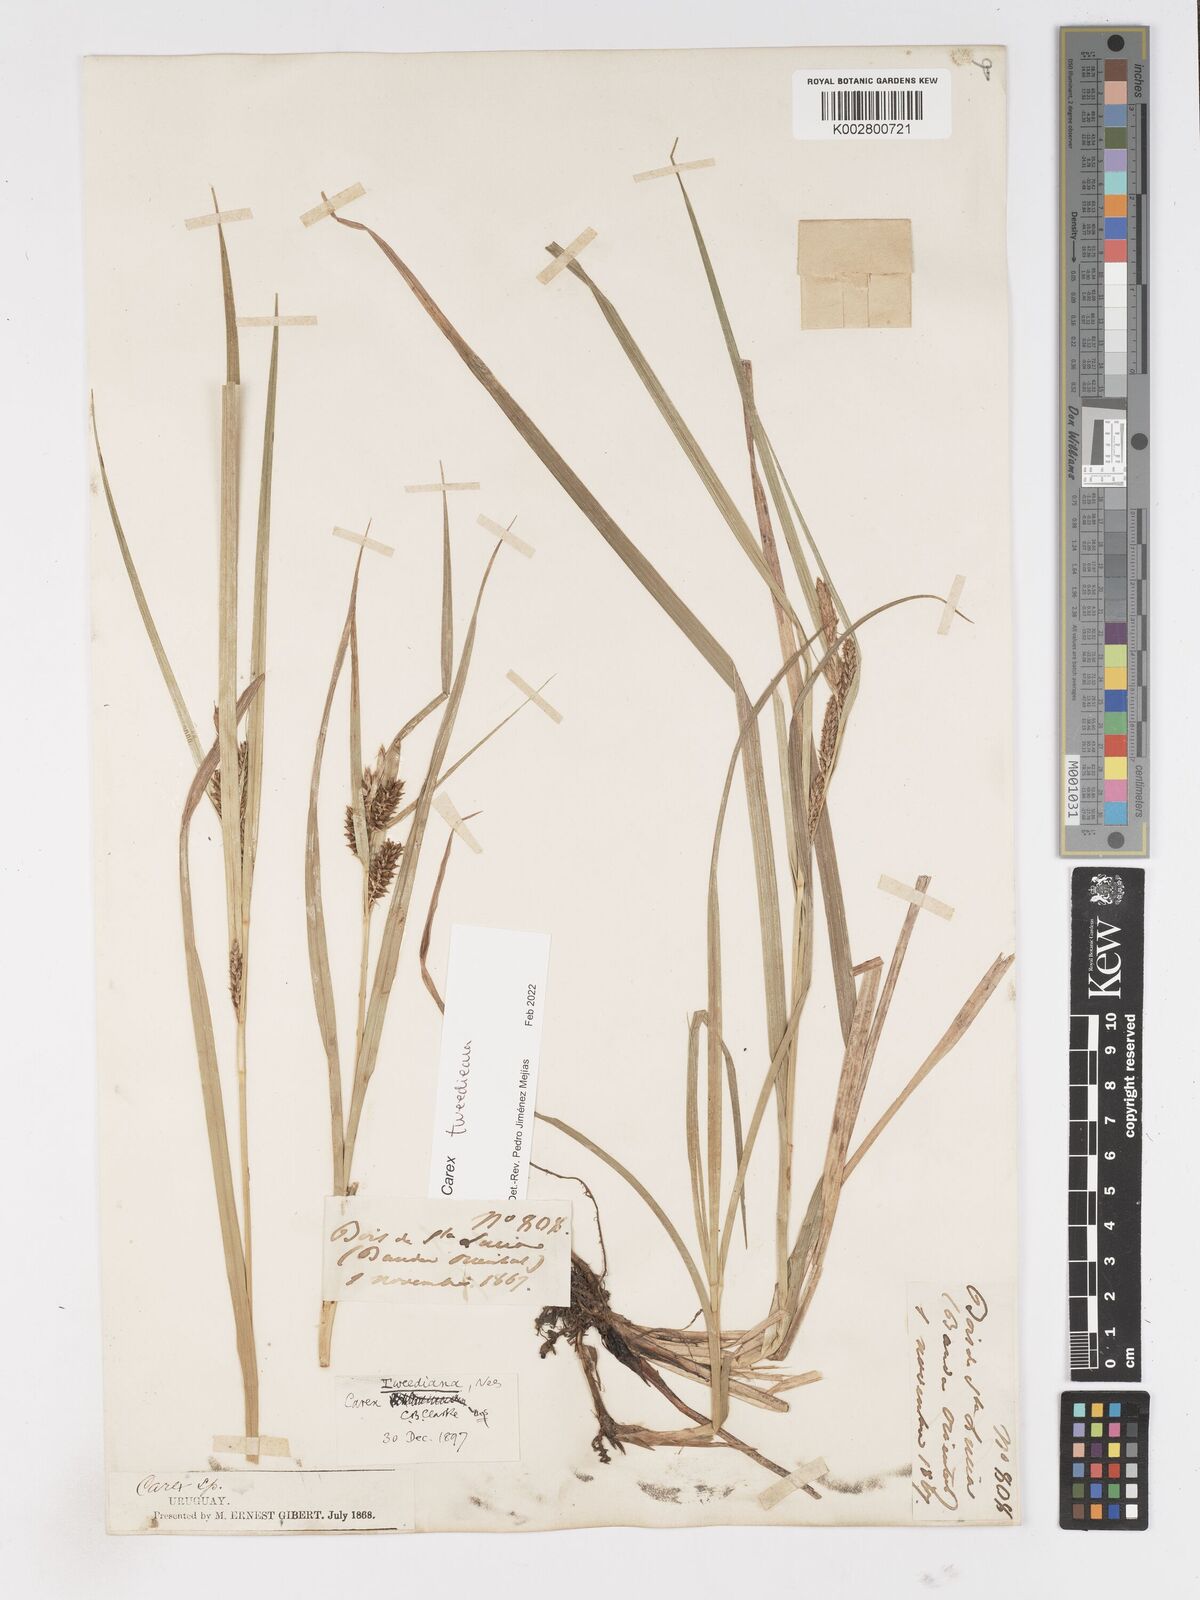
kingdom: Plantae
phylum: Tracheophyta
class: Liliopsida
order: Poales
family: Cyperaceae
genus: Carex
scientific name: Carex tweedieana
